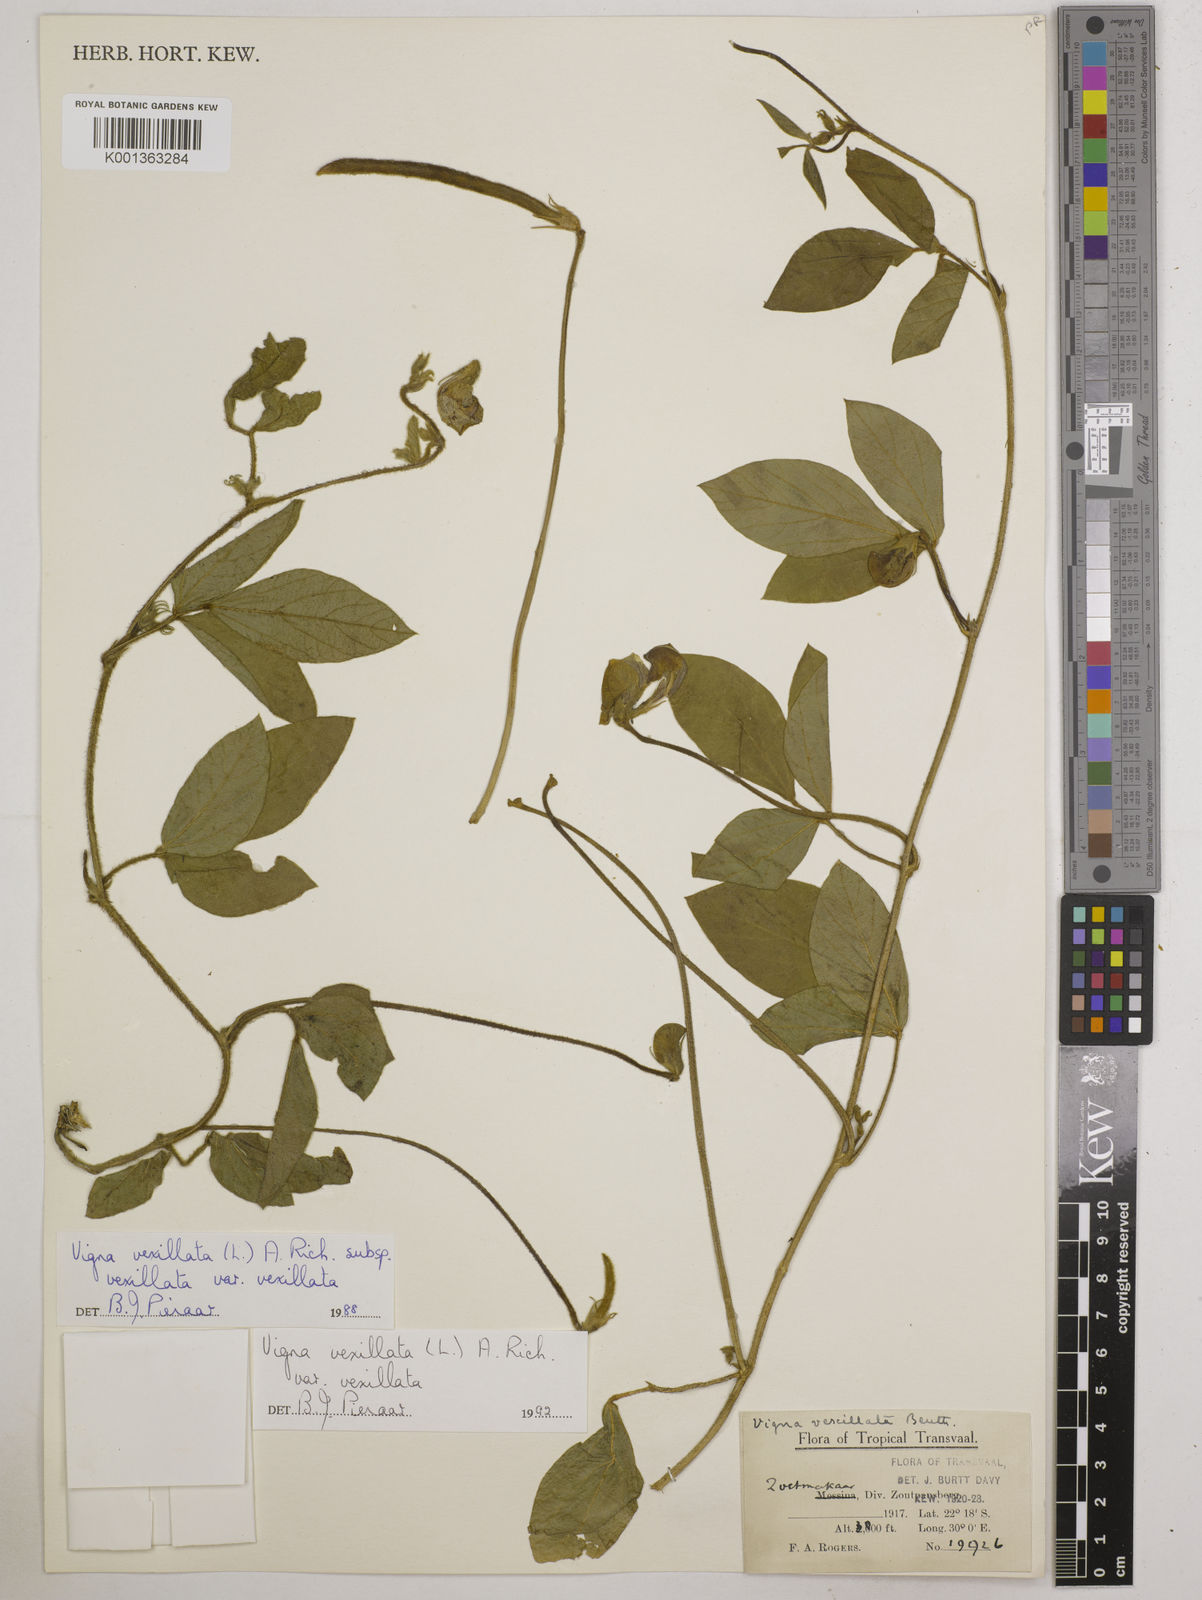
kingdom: Plantae
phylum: Tracheophyta
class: Magnoliopsida
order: Fabales
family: Fabaceae
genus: Vigna
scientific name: Vigna
